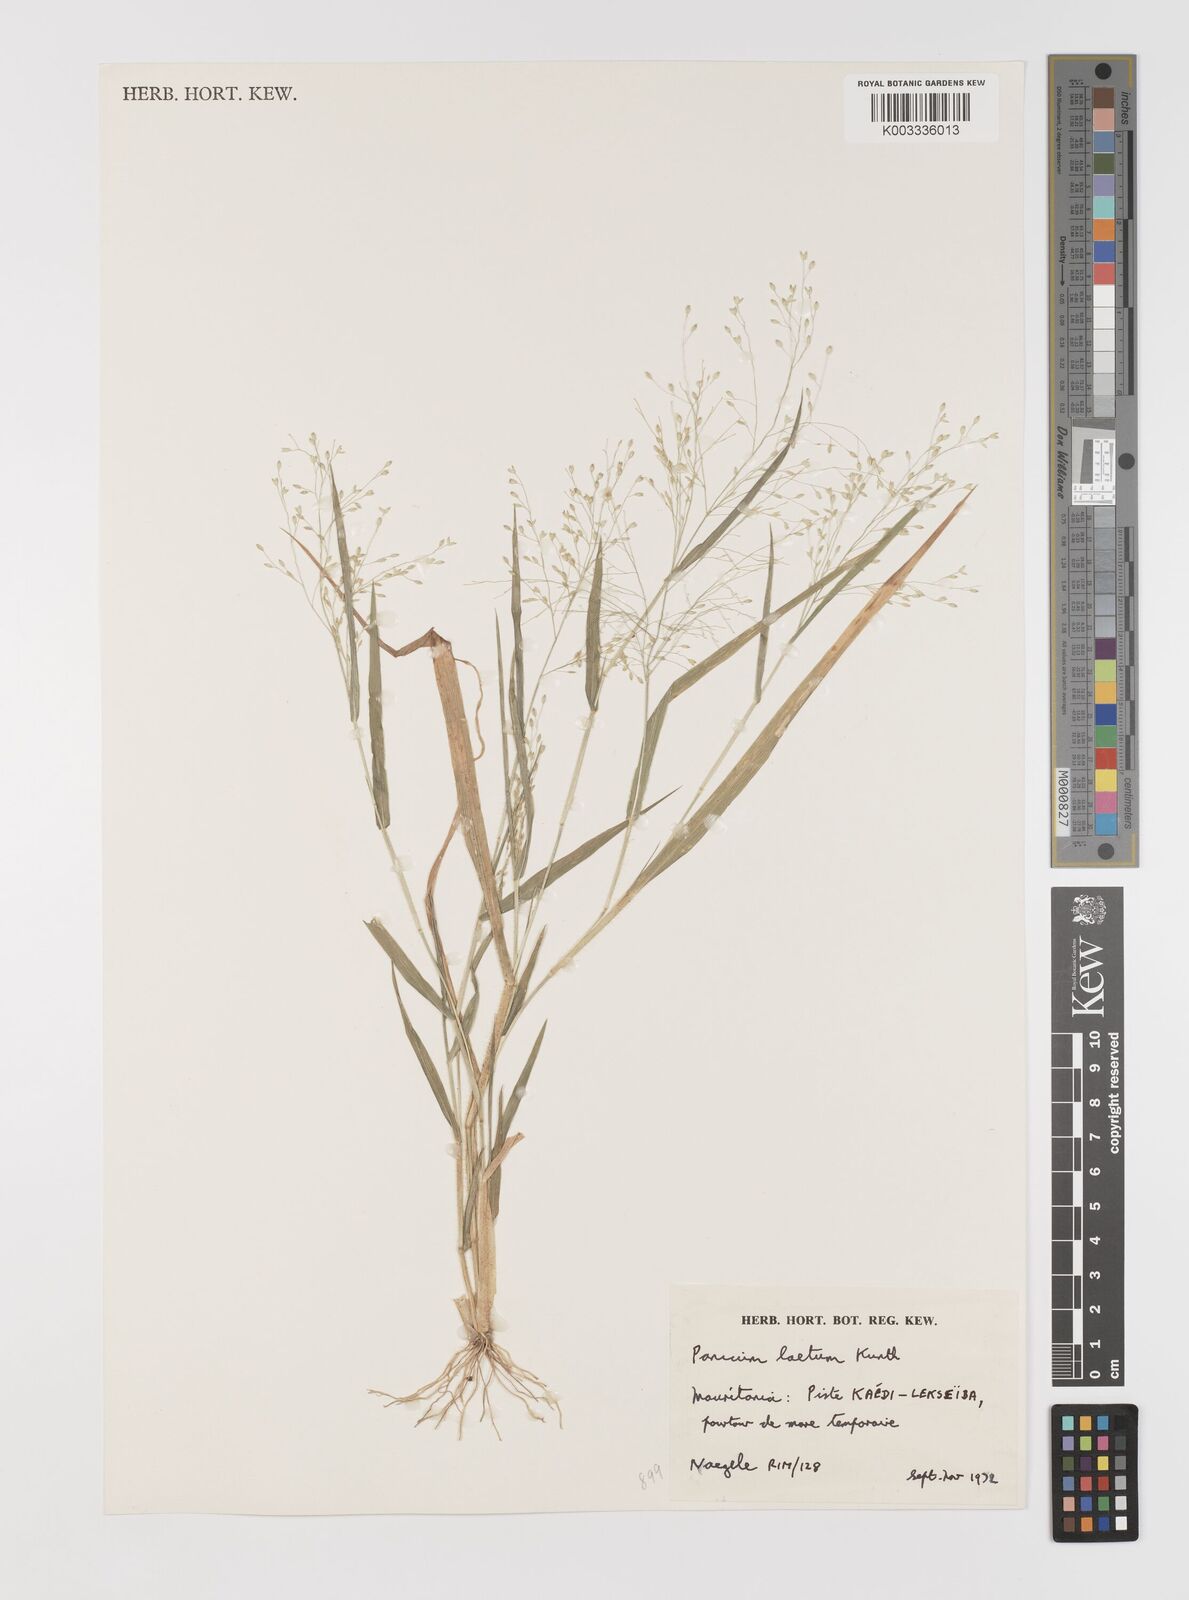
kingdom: Plantae
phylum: Tracheophyta
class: Liliopsida
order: Poales
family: Poaceae
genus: Panicum
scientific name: Panicum laetum
